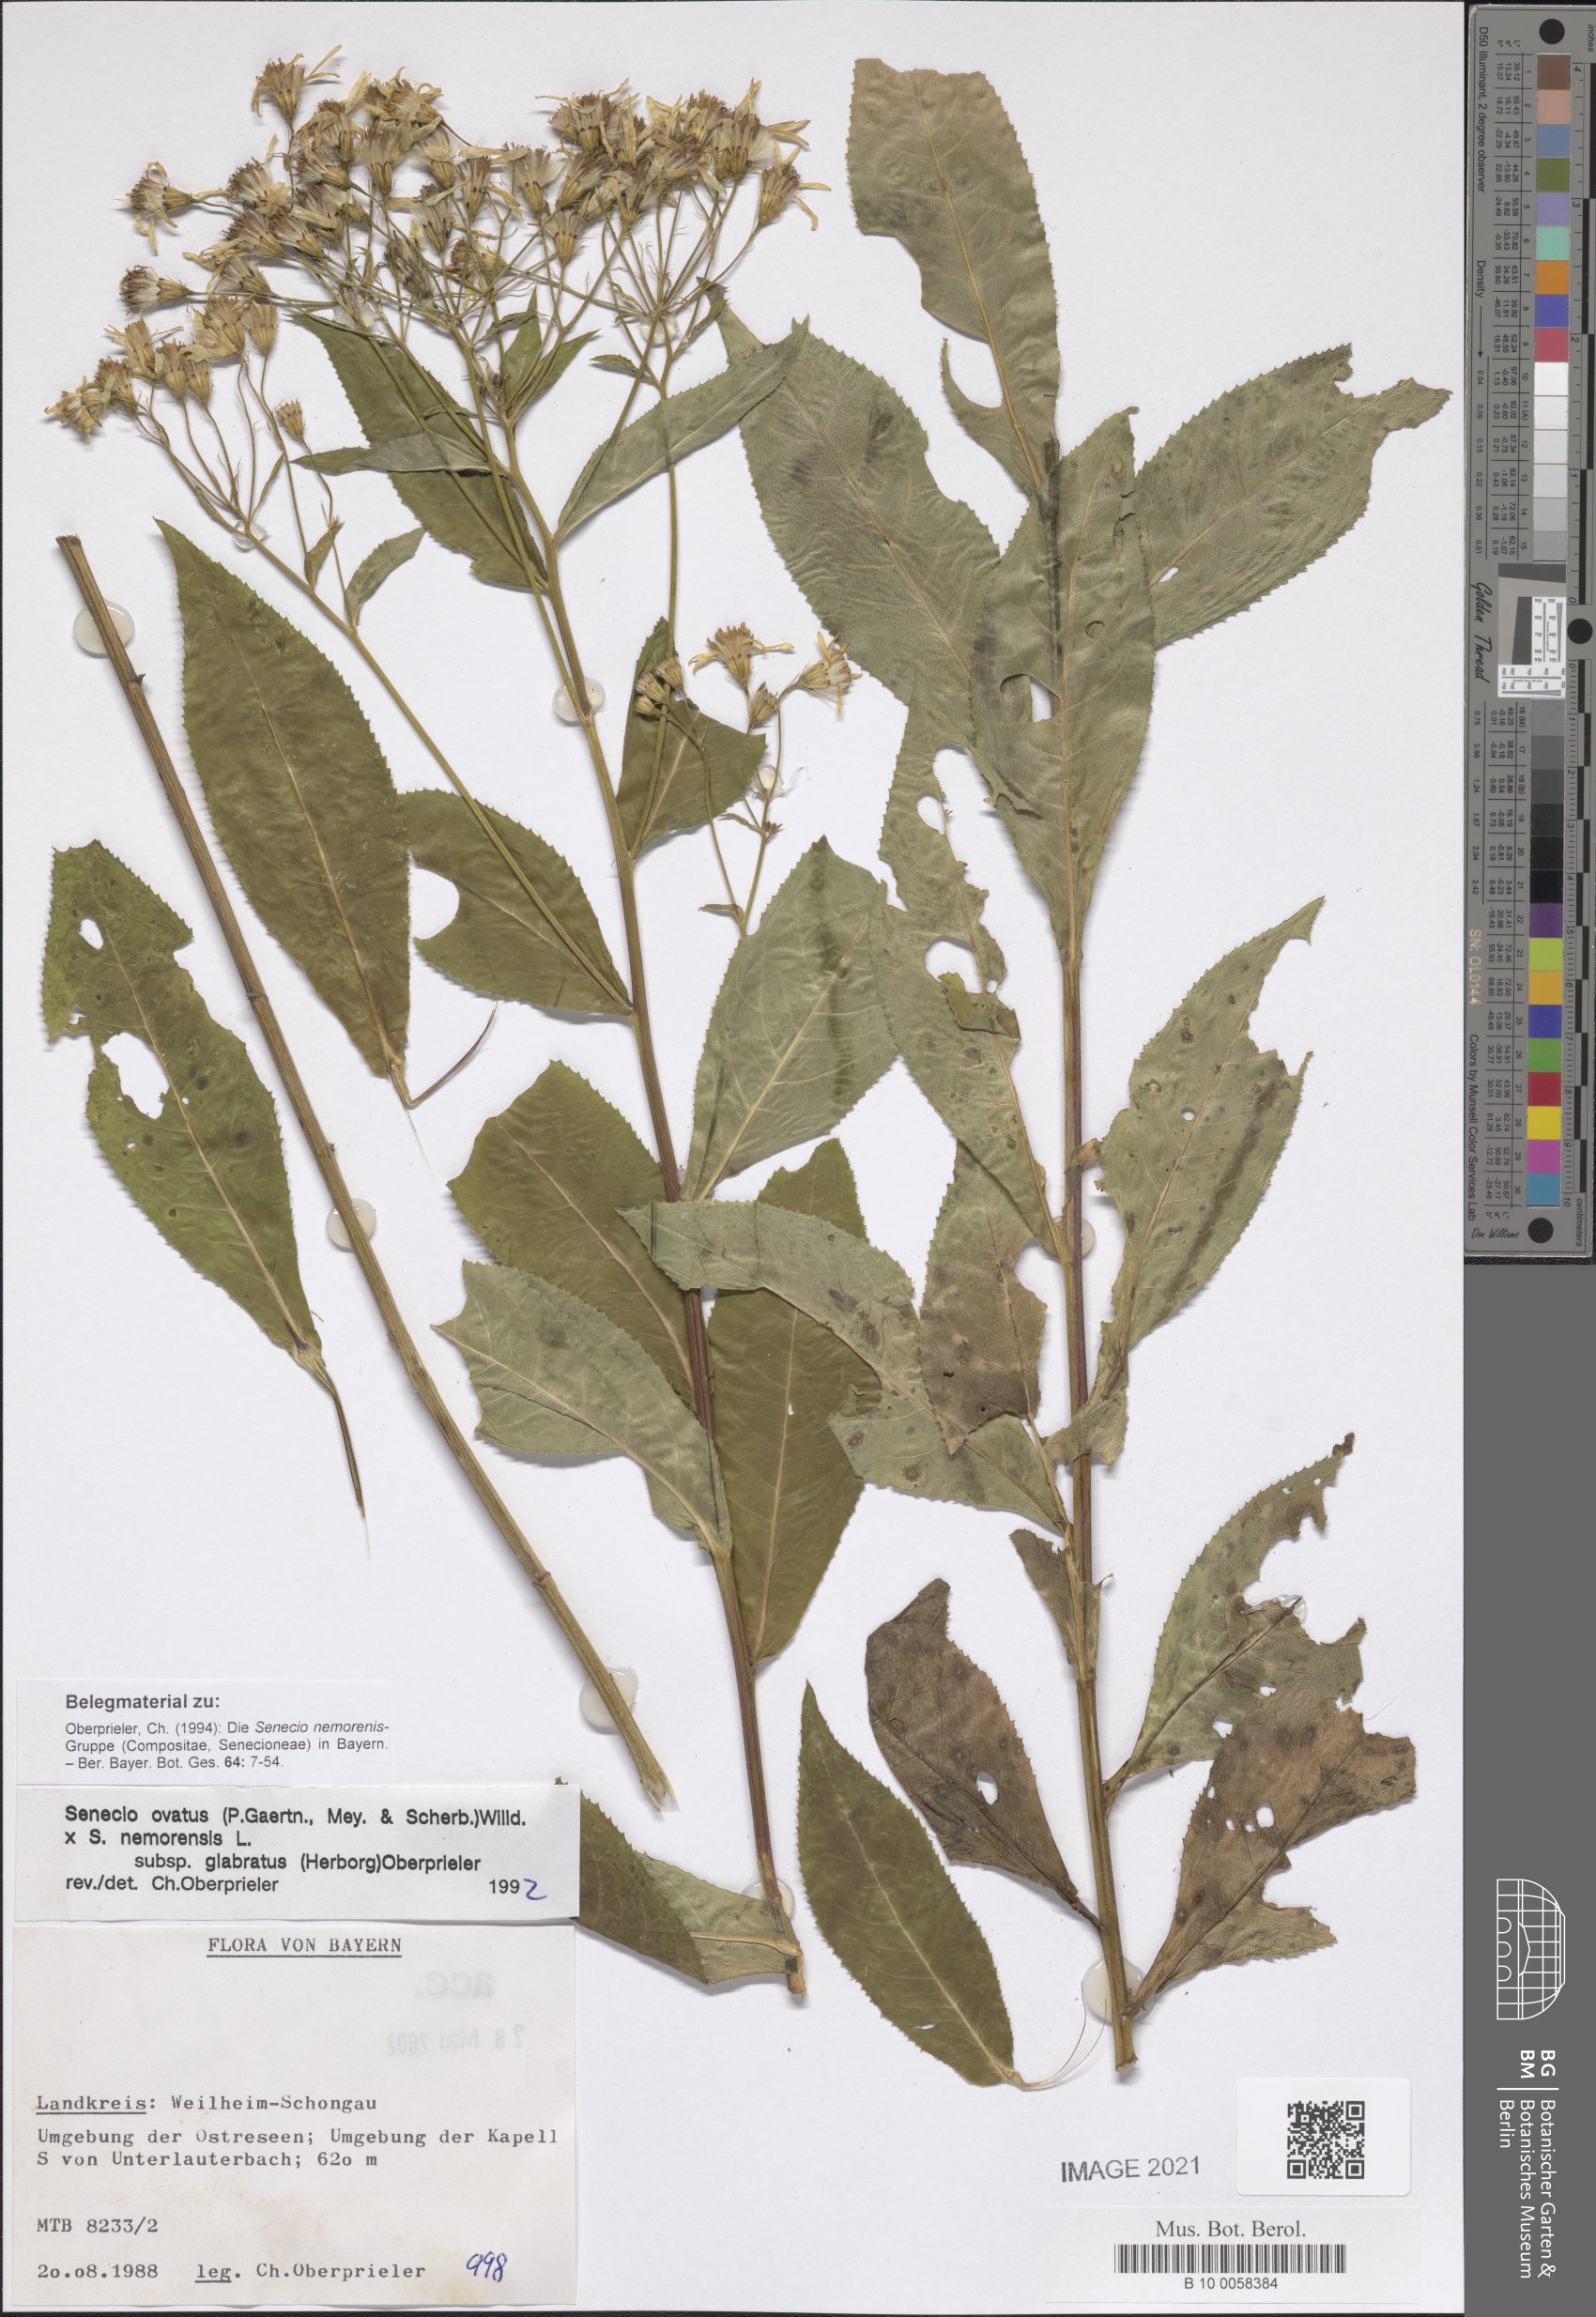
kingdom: Plantae
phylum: Tracheophyta
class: Magnoliopsida
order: Asterales
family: Asteraceae
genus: Senecio
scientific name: Senecio ovatus
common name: Wood ragwort
